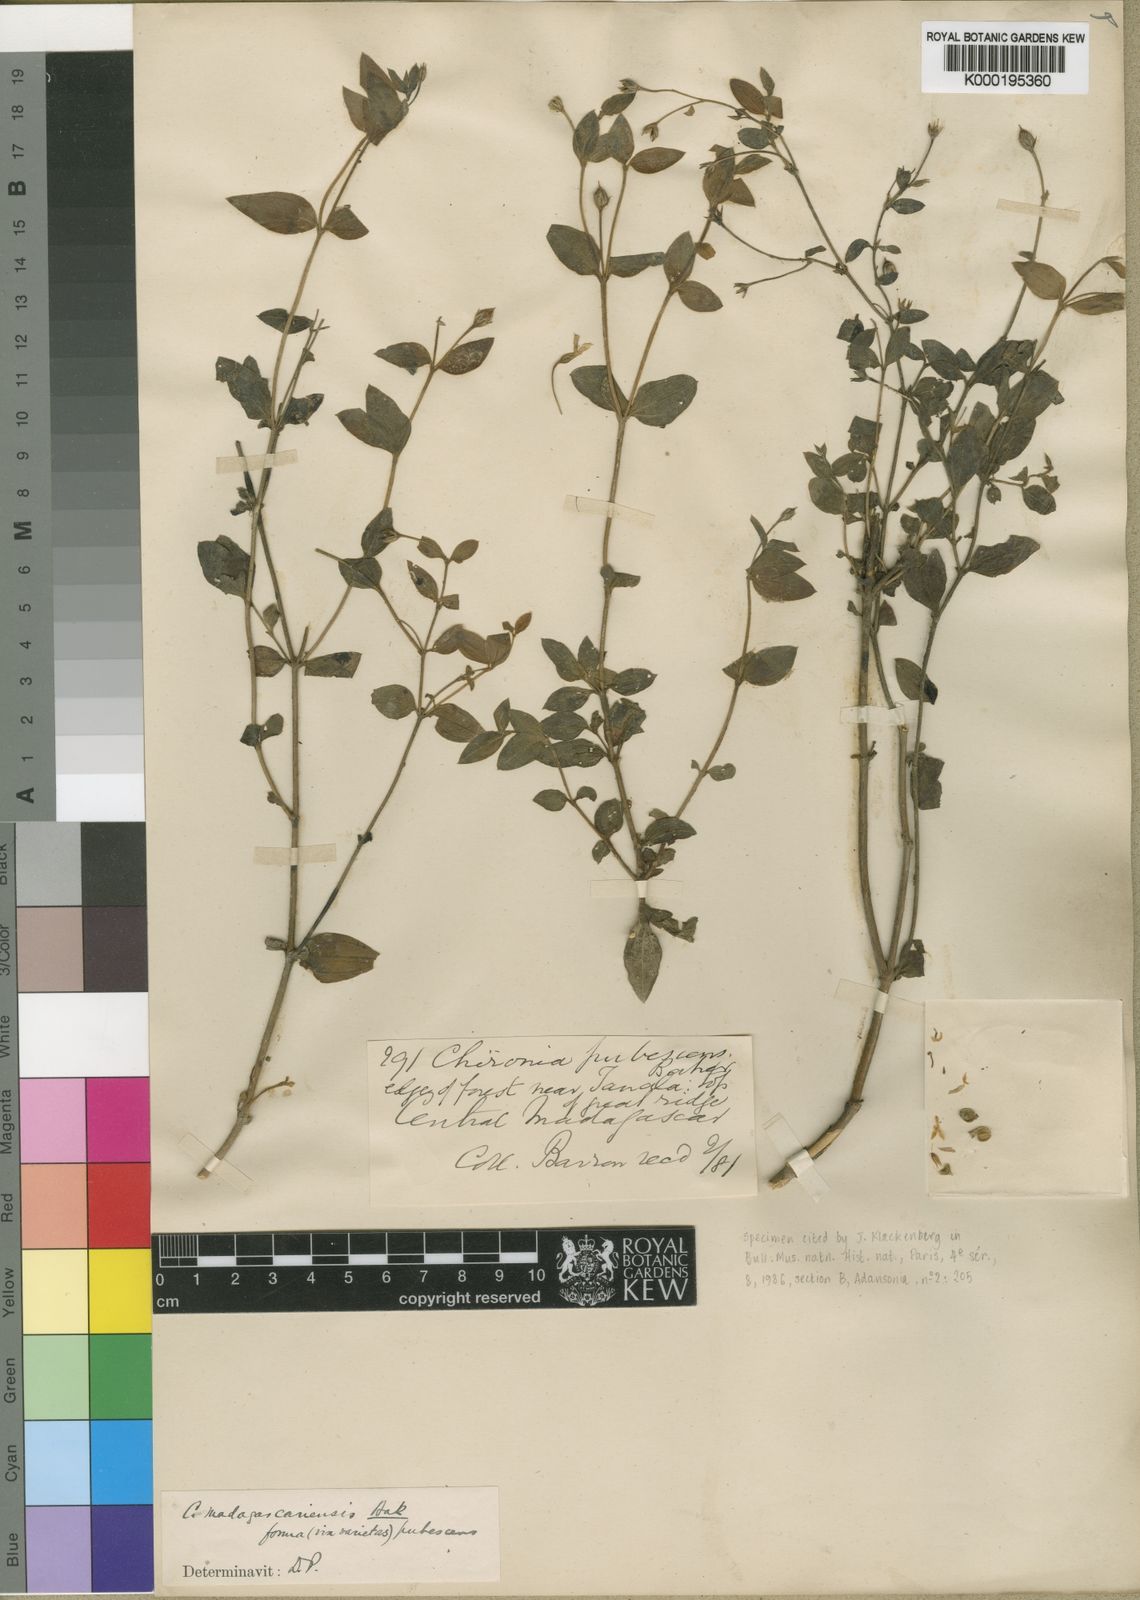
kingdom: Plantae
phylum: Tracheophyta
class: Magnoliopsida
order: Gentianales
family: Gentianaceae
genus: Ornichia
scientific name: Ornichia madagascariensis
